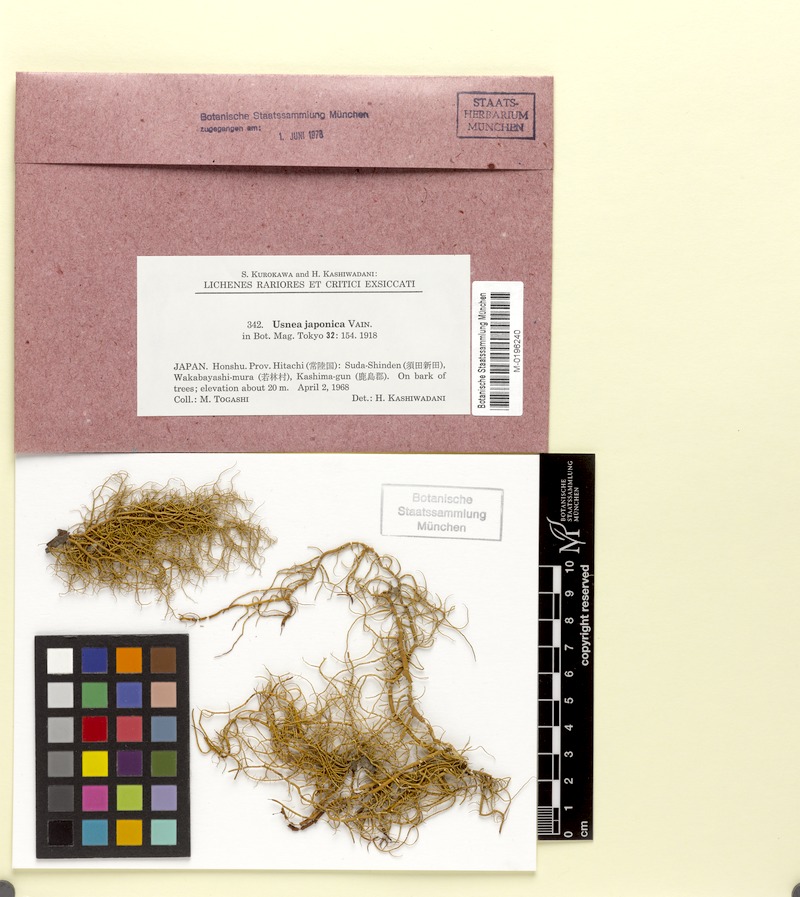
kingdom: Fungi
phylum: Ascomycota
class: Lecanoromycetes
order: Lecanorales
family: Parmeliaceae
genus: Usnea
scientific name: Usnea japonica
